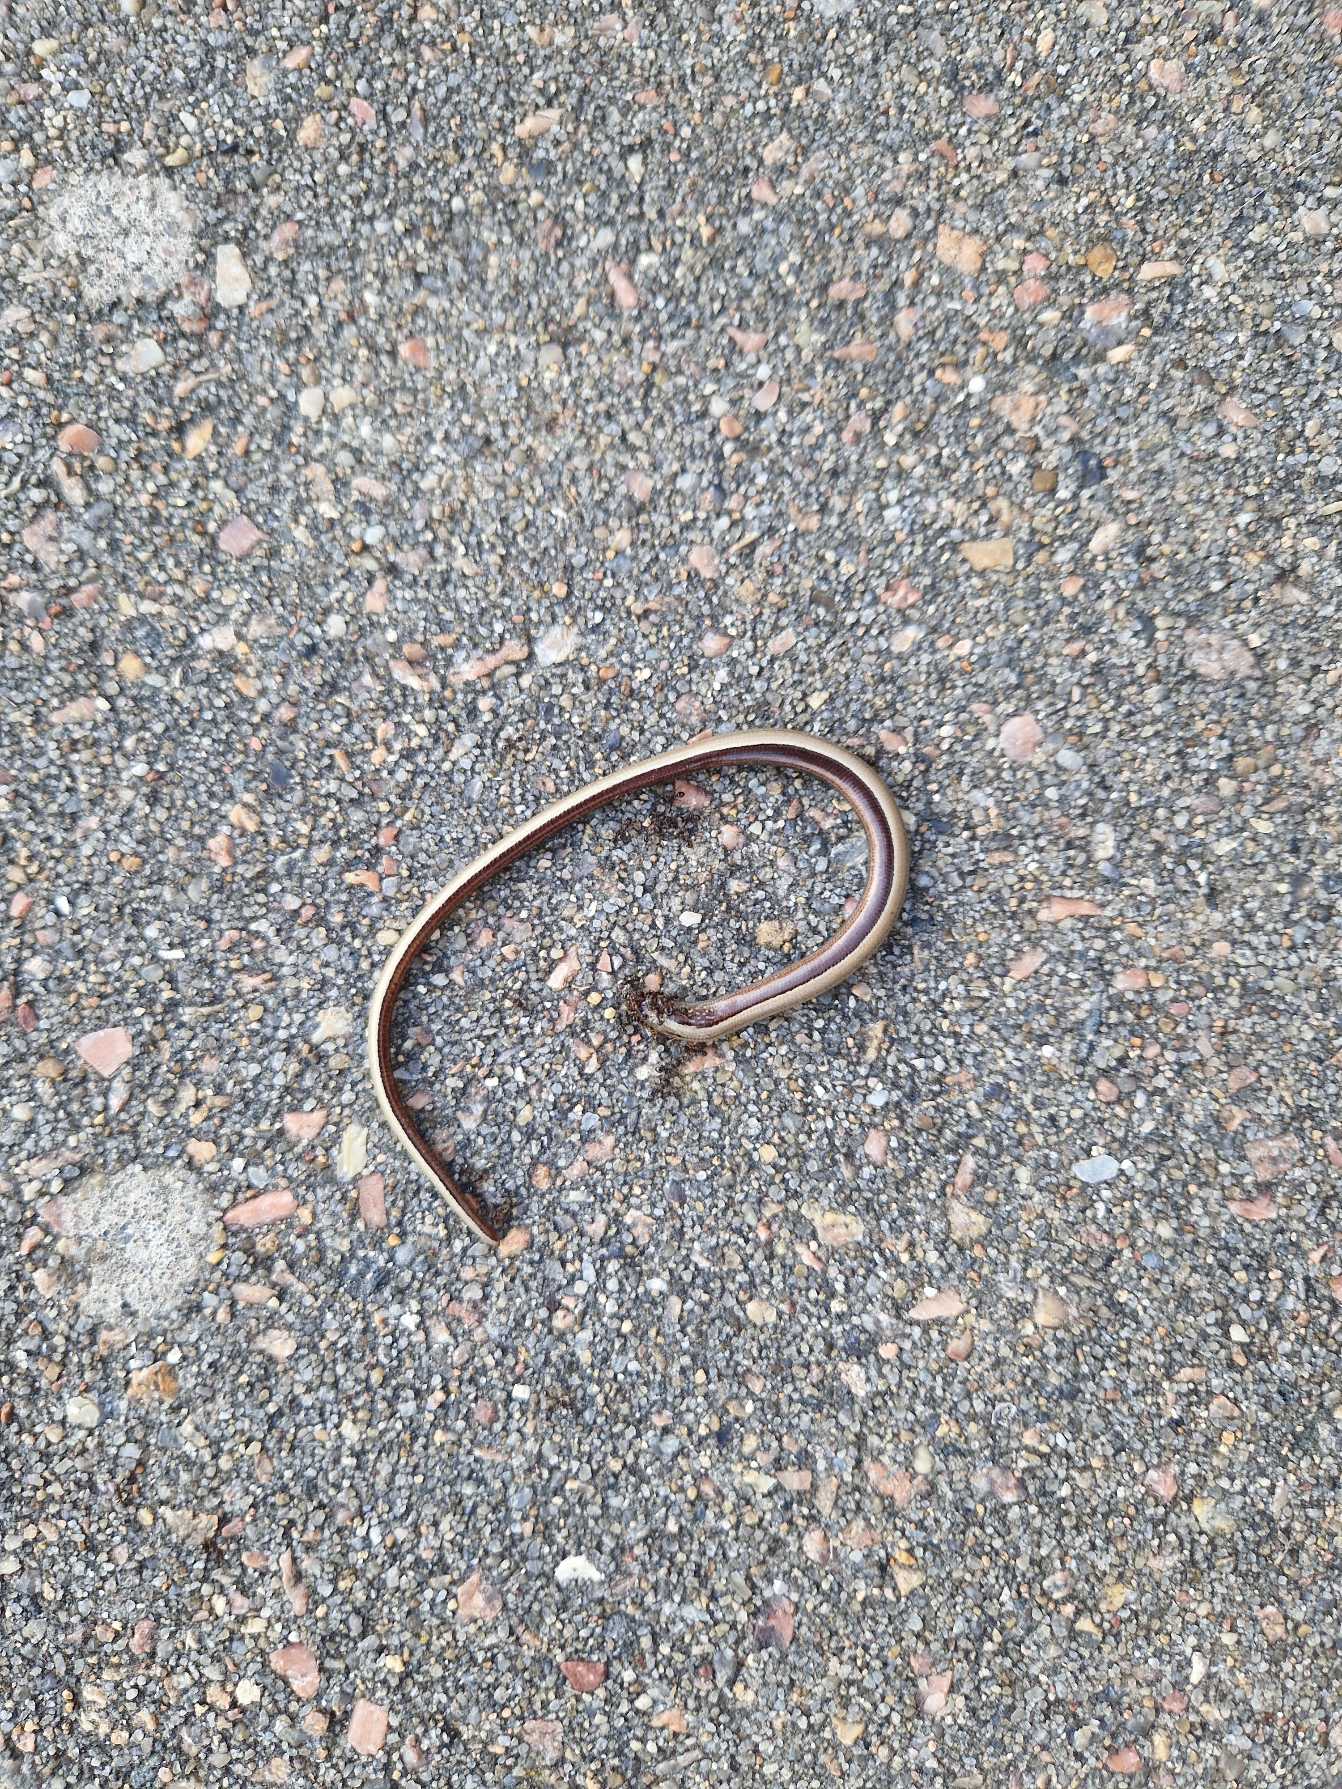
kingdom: Animalia
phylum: Chordata
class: Squamata
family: Anguidae
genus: Anguis
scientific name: Anguis fragilis
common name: Stålorm
